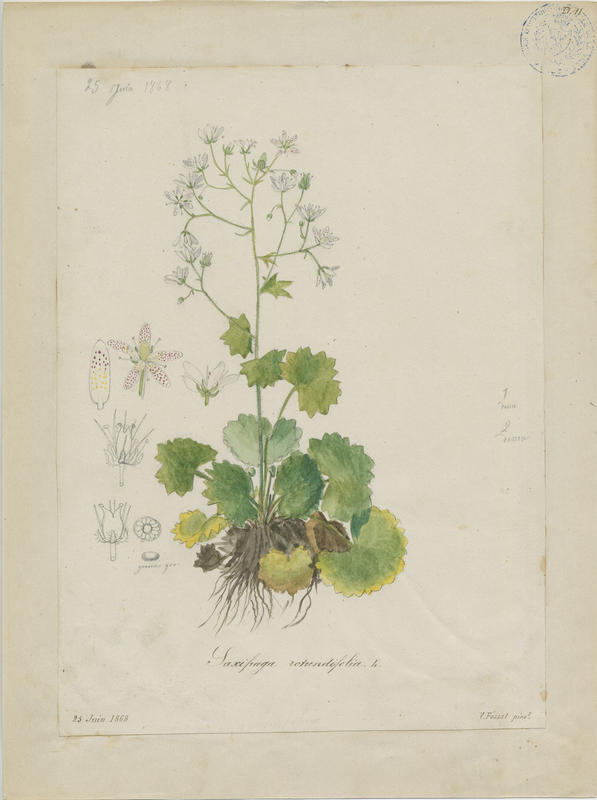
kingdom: Plantae
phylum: Tracheophyta
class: Magnoliopsida
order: Saxifragales
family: Saxifragaceae
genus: Saxifraga
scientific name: Saxifraga rotundifolia
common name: Round-leaved saxifrage
